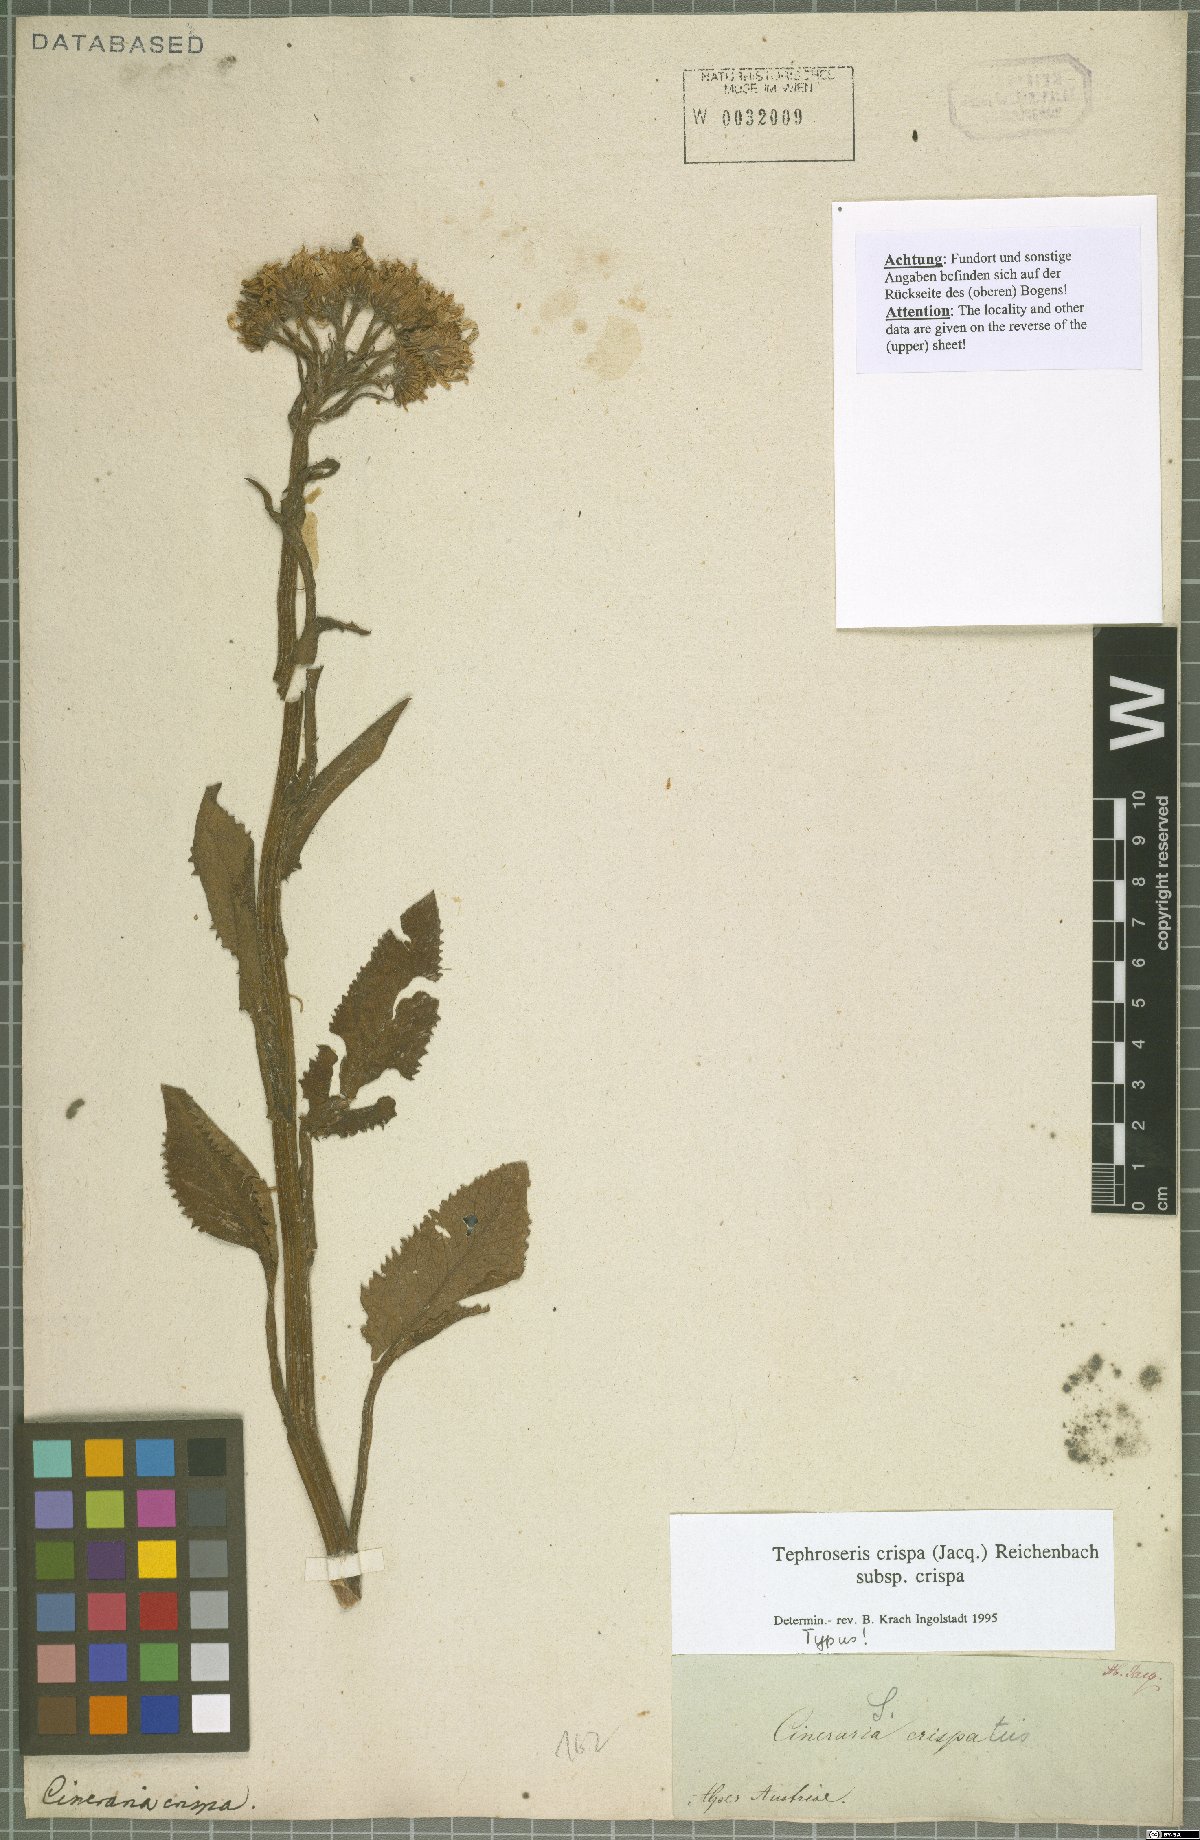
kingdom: Plantae
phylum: Tracheophyta
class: Magnoliopsida
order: Asterales
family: Asteraceae
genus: Tephroseris
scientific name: Tephroseris crispa
